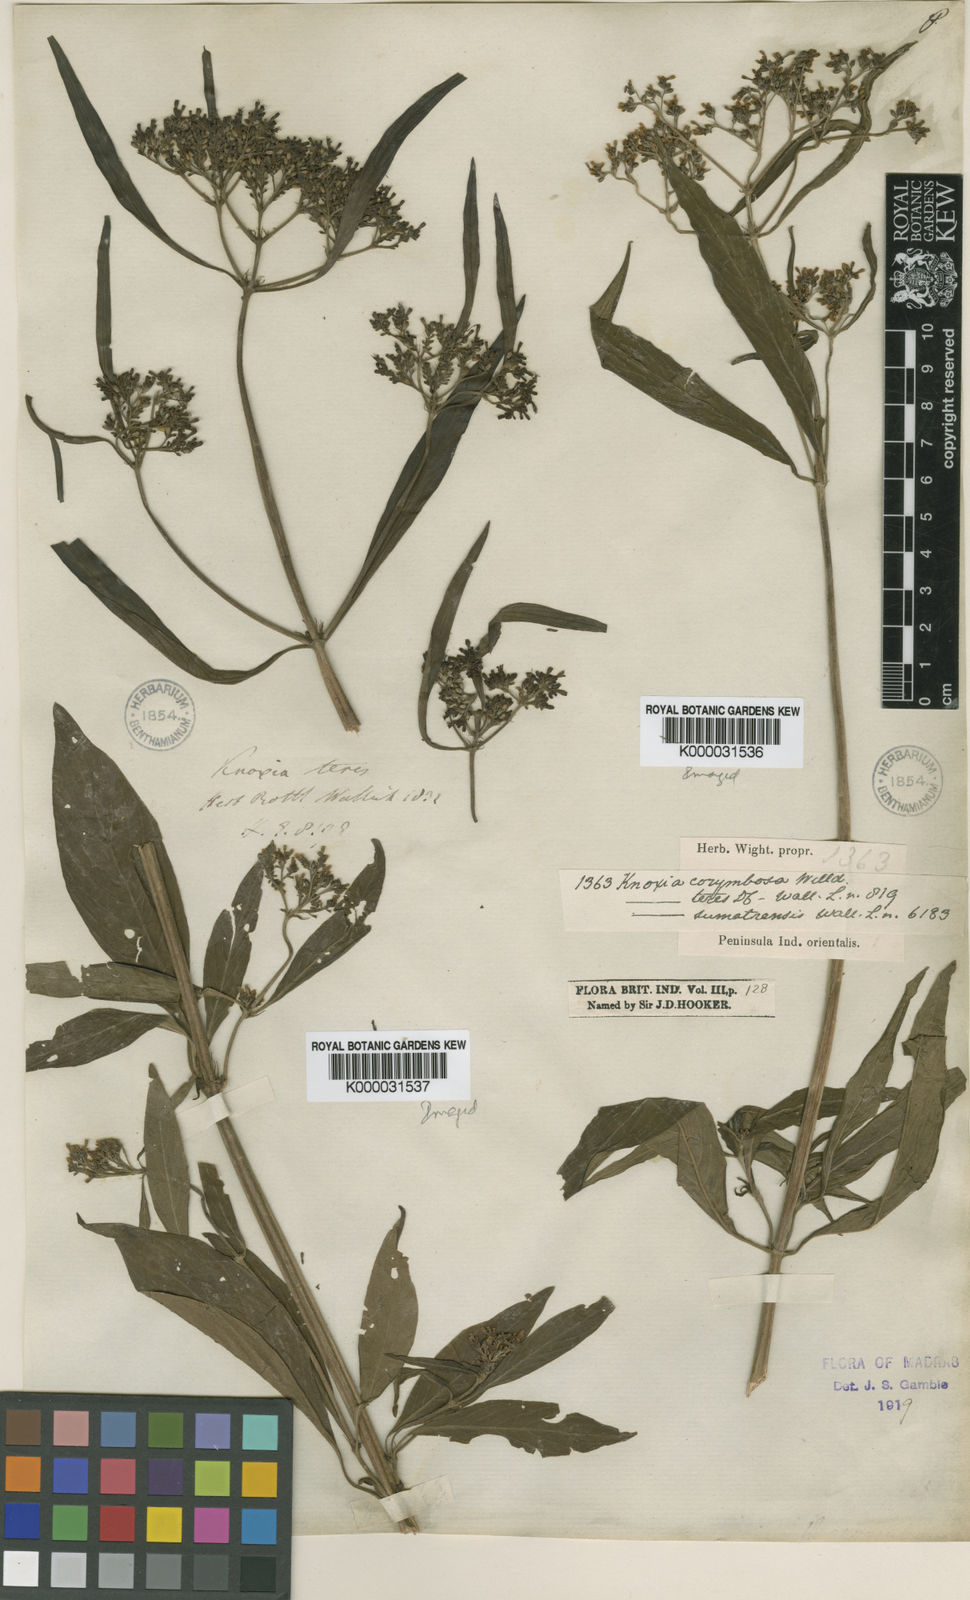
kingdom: Plantae
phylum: Tracheophyta
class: Magnoliopsida
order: Gentianales
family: Rubiaceae
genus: Knoxia
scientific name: Knoxia sumatrensis
